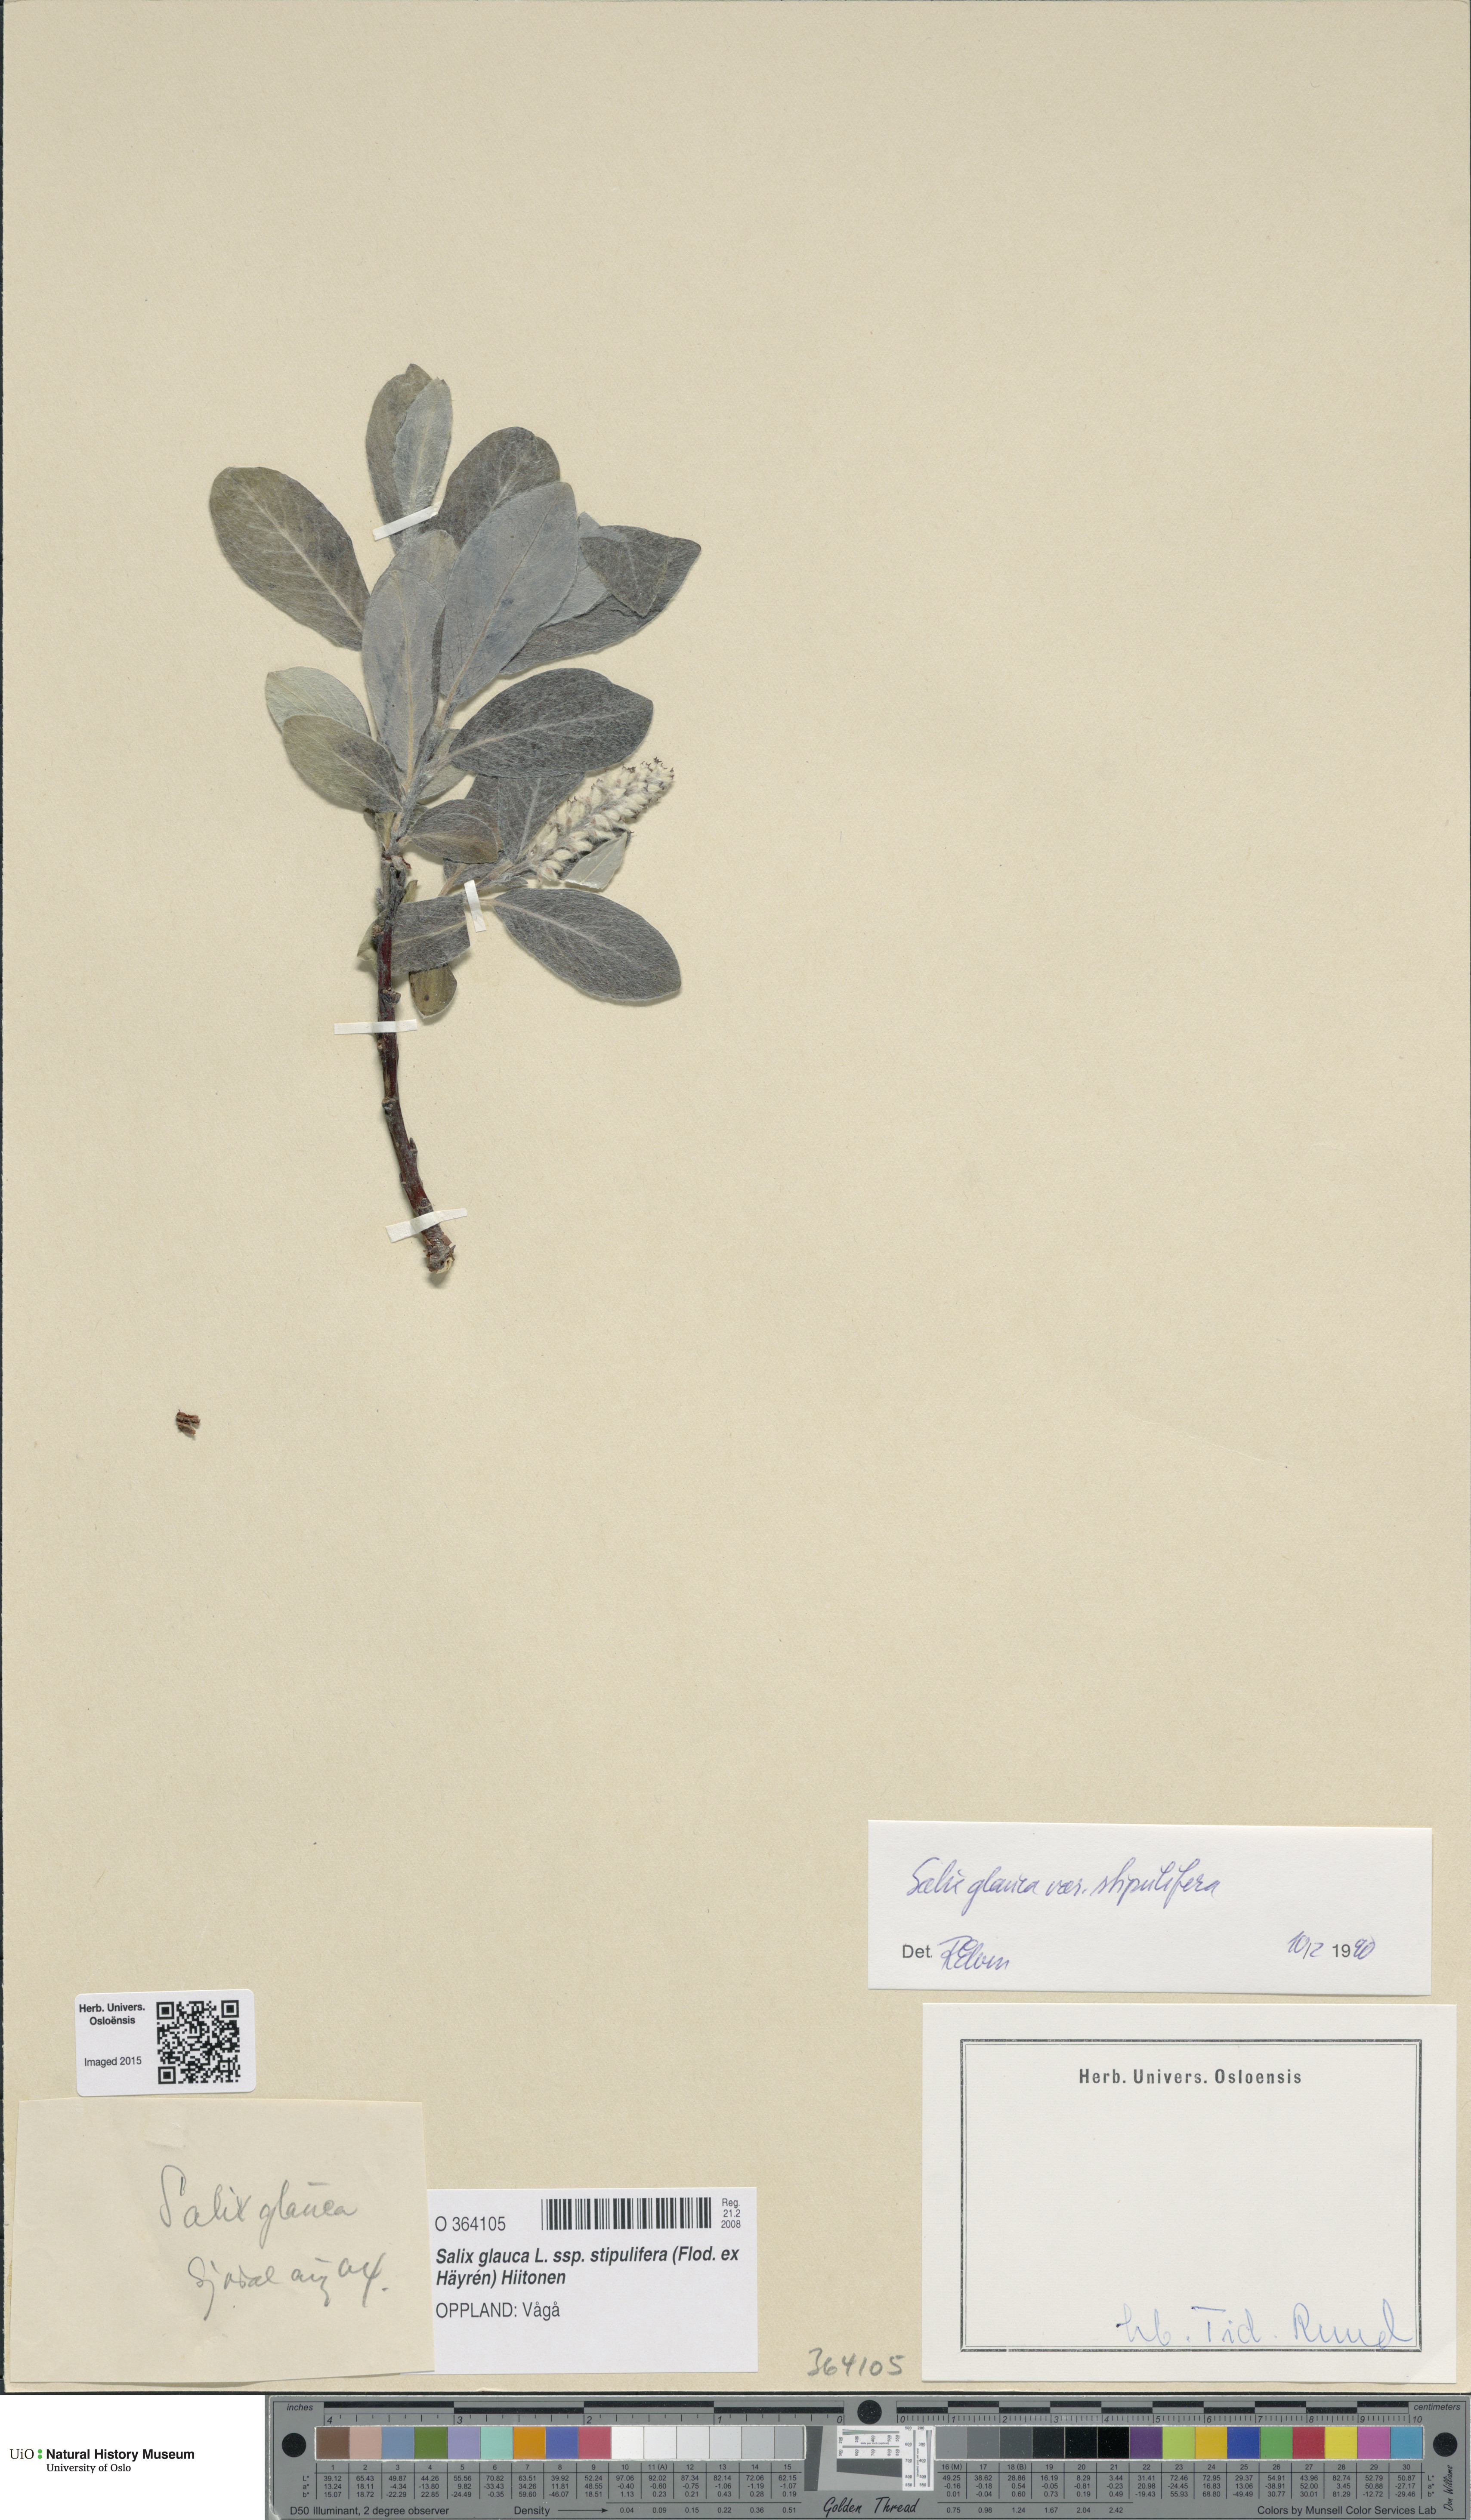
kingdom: Plantae
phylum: Tracheophyta
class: Magnoliopsida
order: Malpighiales
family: Salicaceae
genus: Salix
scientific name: Salix glauca
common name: Glaucous willow
